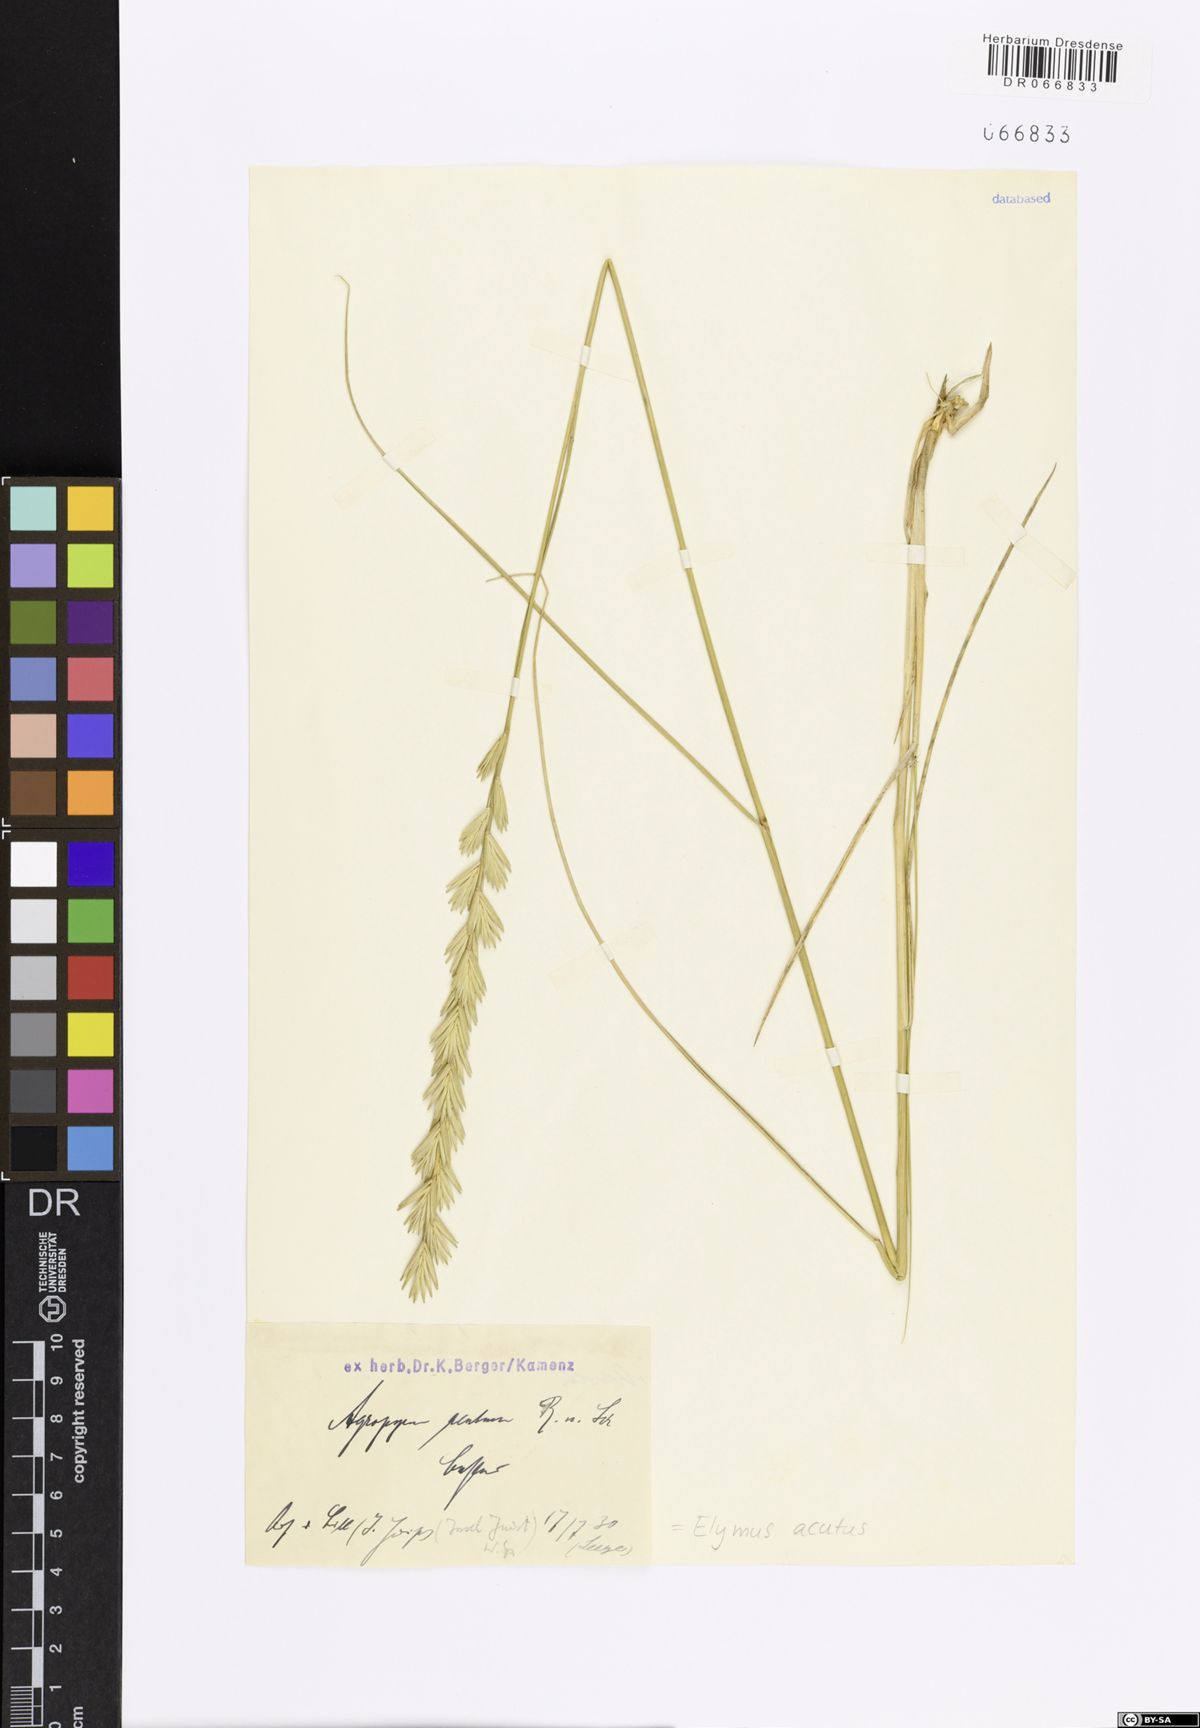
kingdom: Plantae
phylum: Tracheophyta
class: Liliopsida
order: Poales
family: Poaceae
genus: Thinopyrum
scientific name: Thinopyrum acutum
